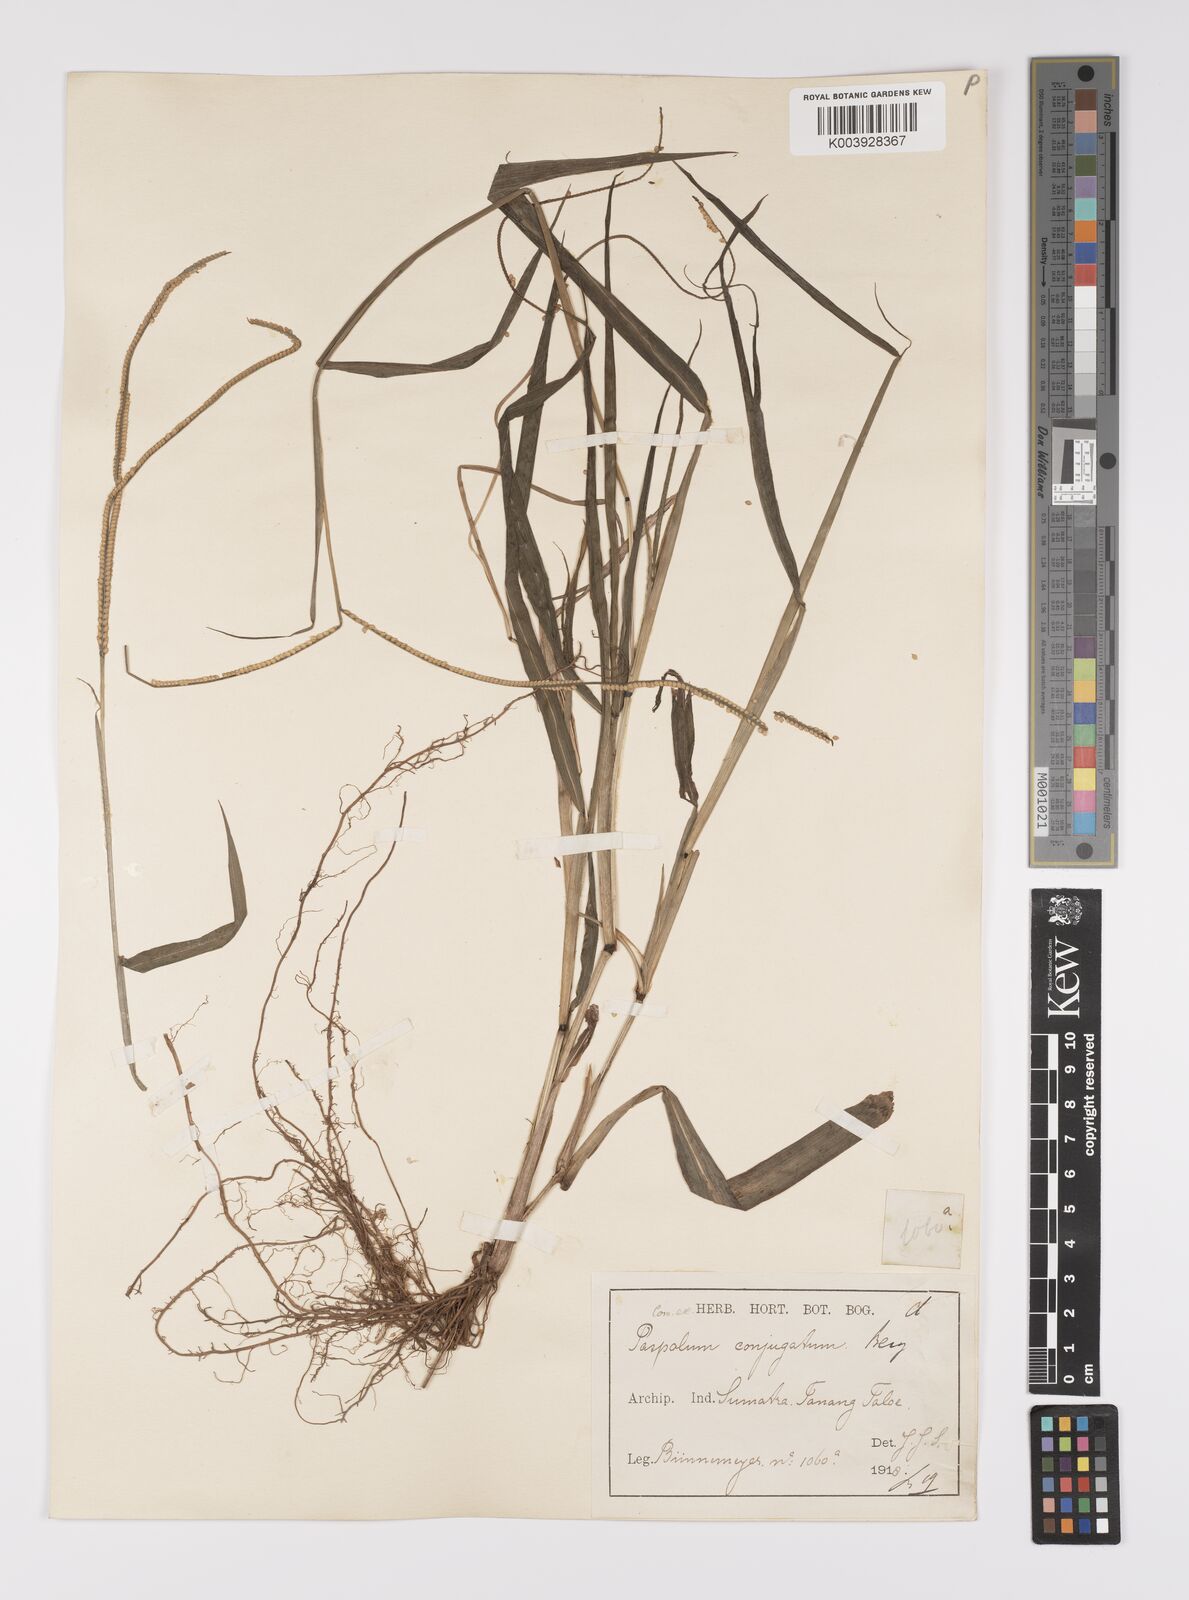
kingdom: Plantae
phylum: Tracheophyta
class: Liliopsida
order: Poales
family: Poaceae
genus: Paspalum
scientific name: Paspalum conjugatum
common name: Hilograss
